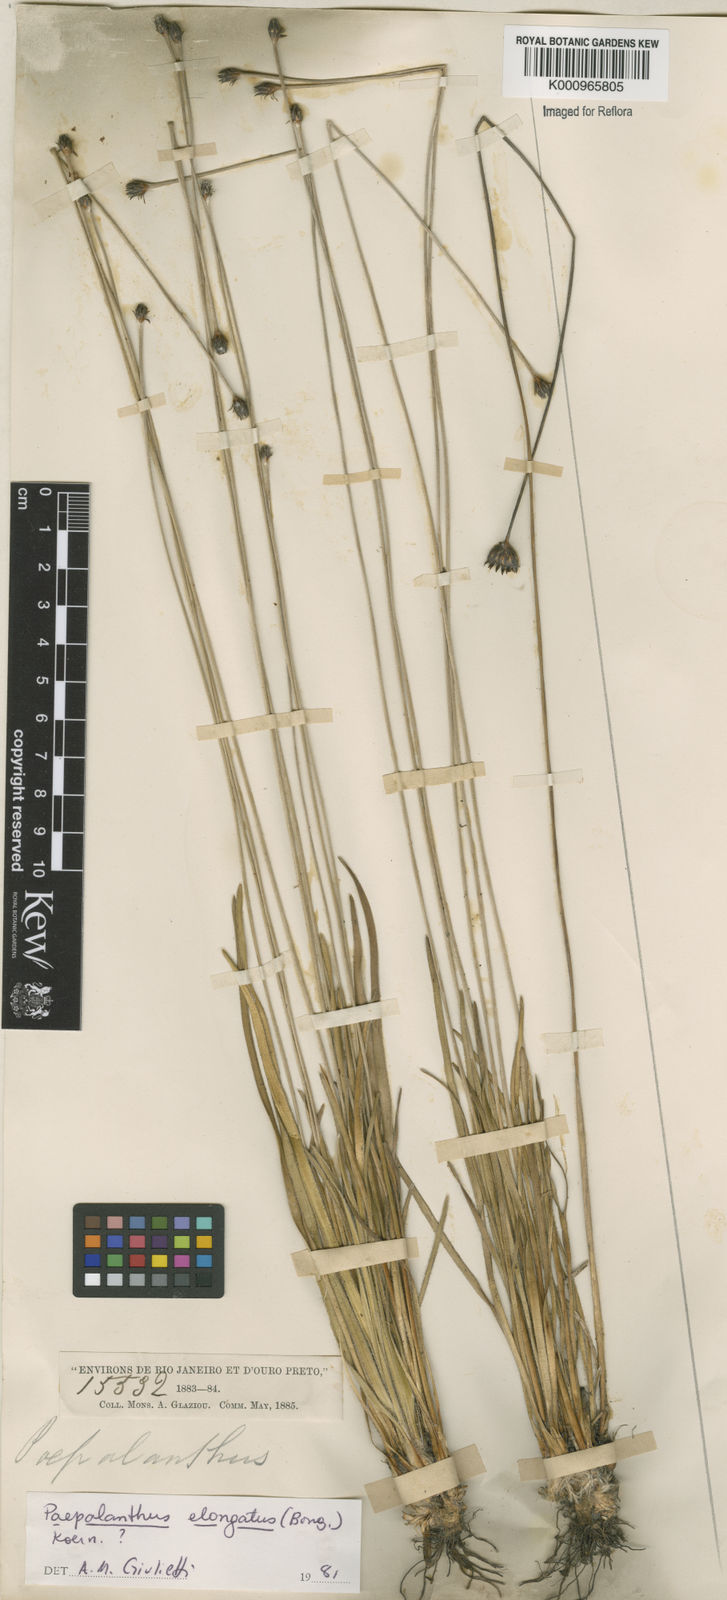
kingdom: Plantae
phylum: Tracheophyta
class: Liliopsida
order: Poales
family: Eriocaulaceae
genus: Paepalanthus
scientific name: Paepalanthus
